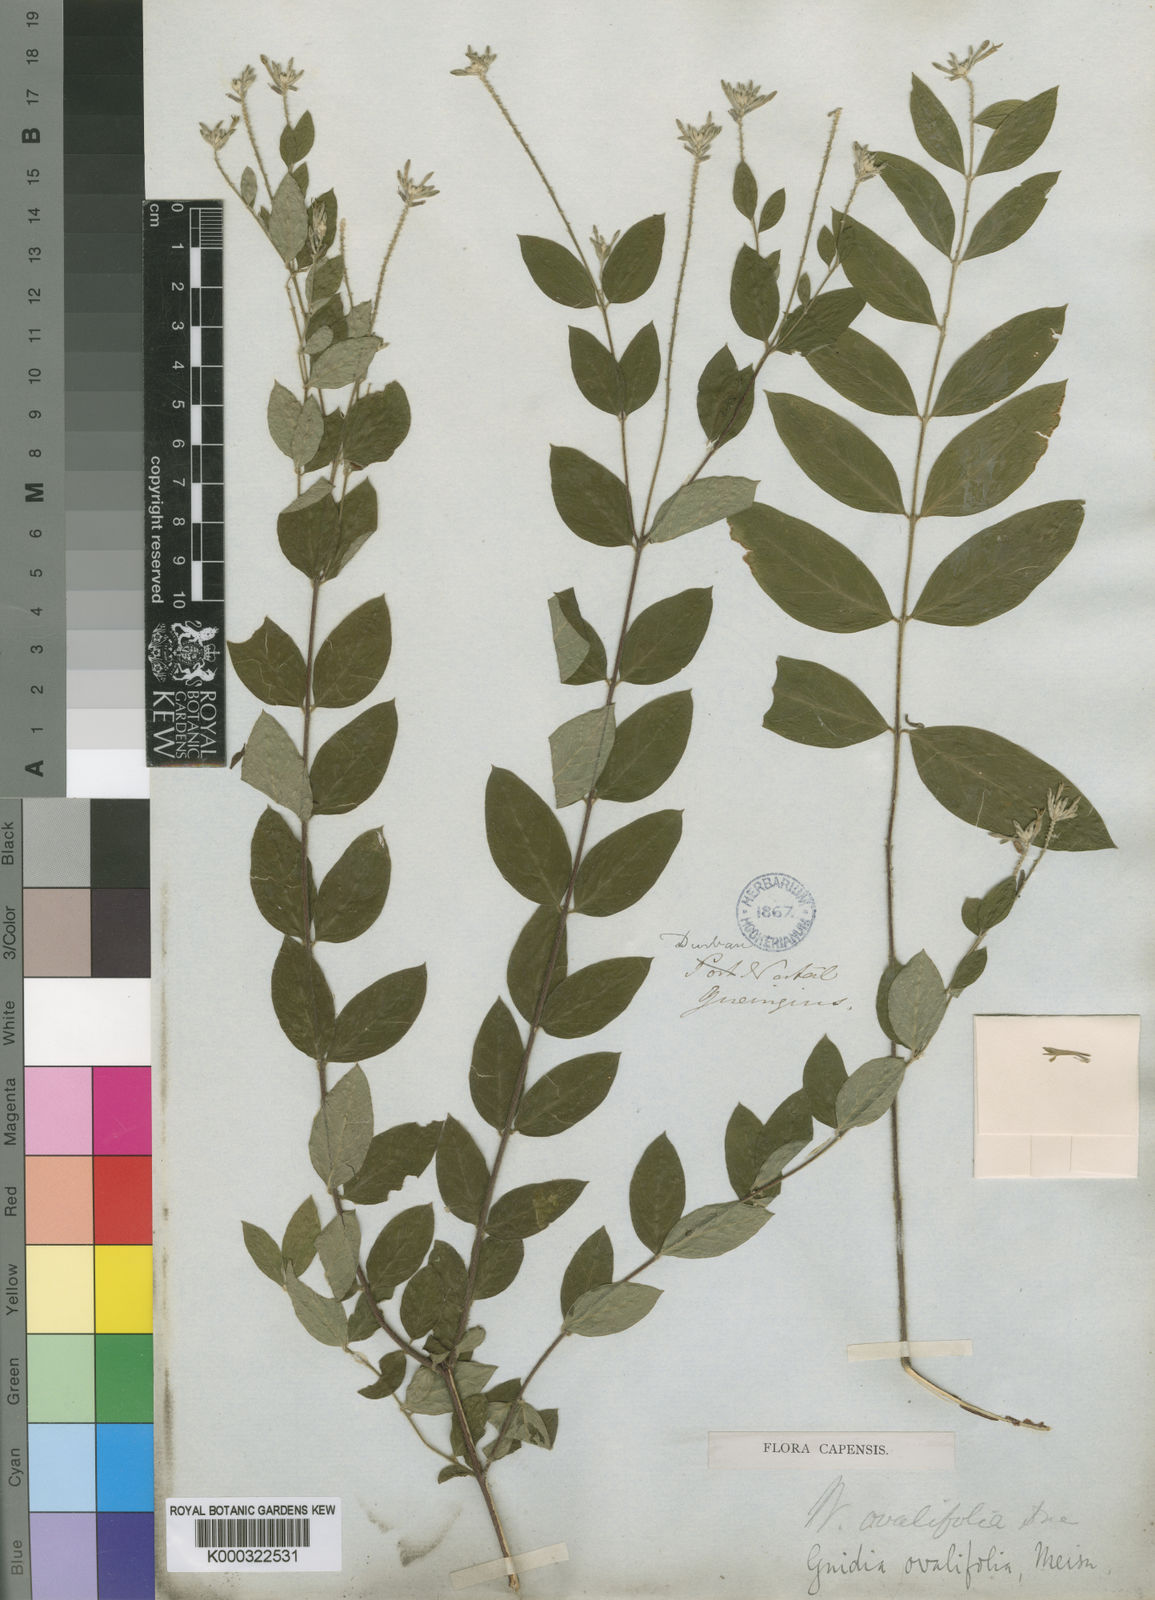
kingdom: Plantae
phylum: Tracheophyta
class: Magnoliopsida
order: Malvales
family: Thymelaeaceae
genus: Gnidia
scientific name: Gnidia
